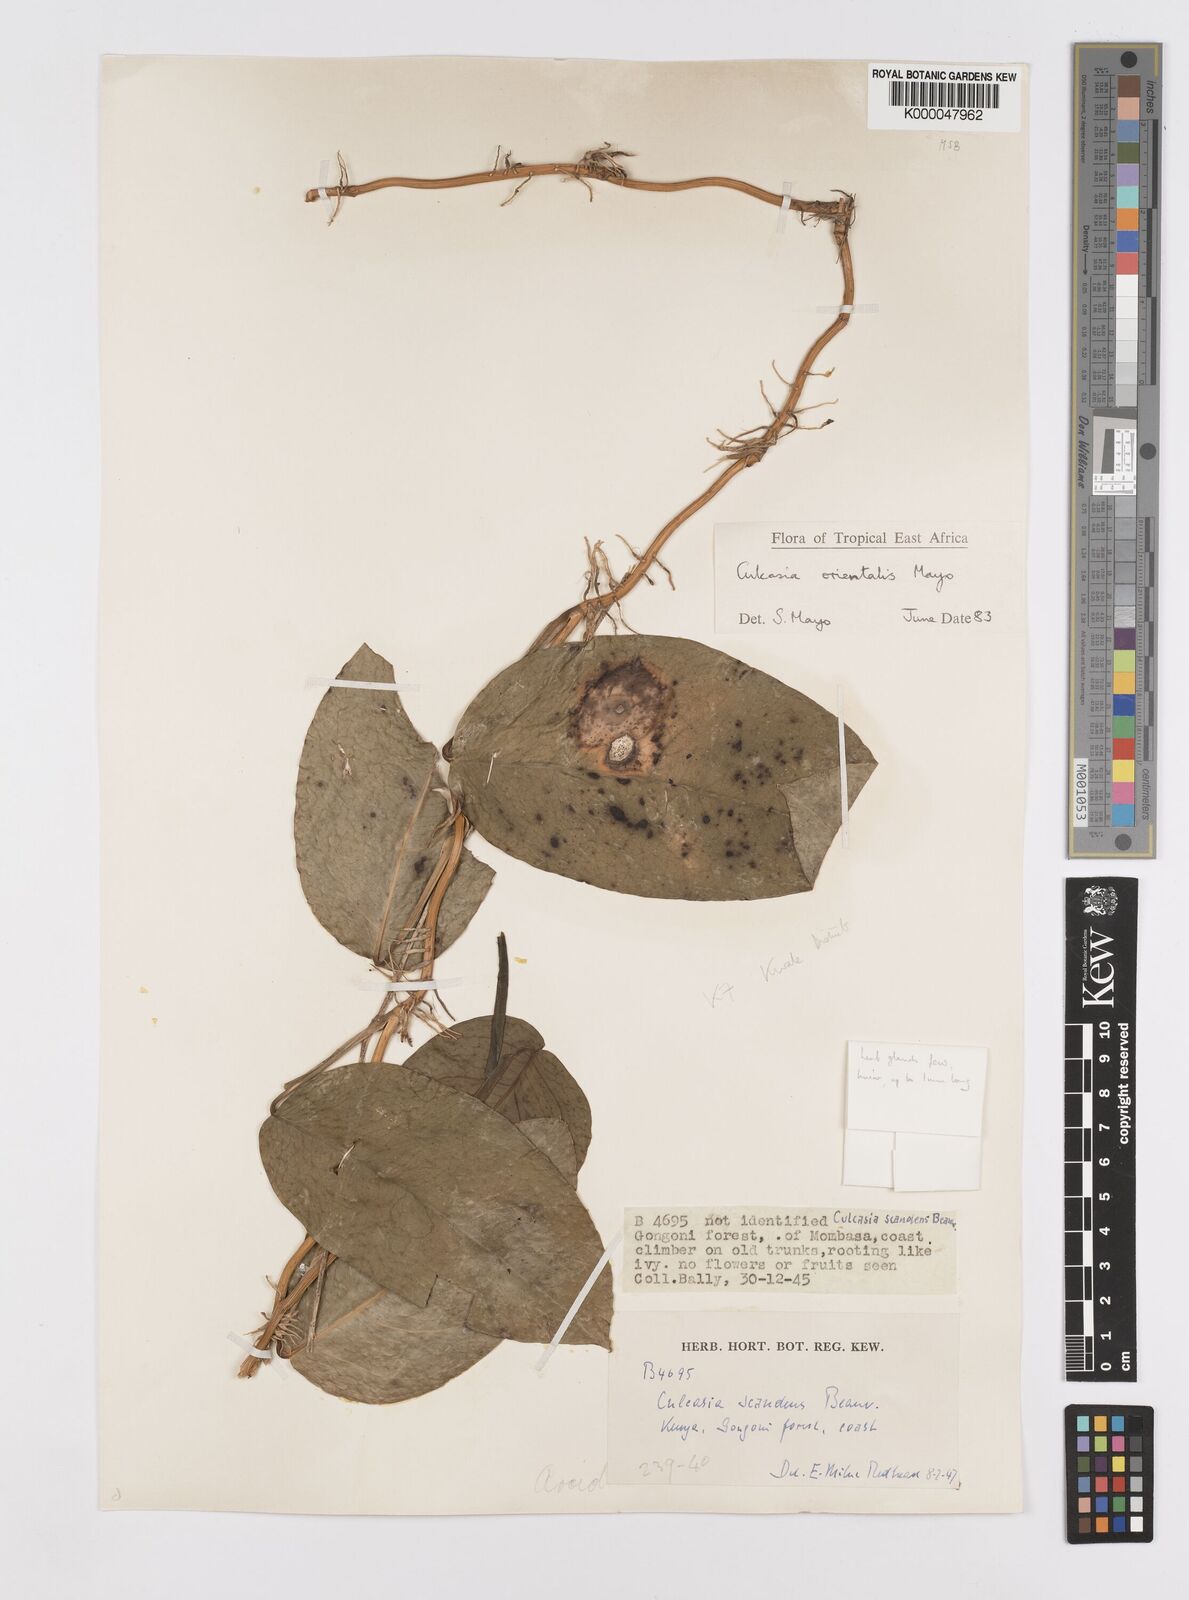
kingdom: Plantae
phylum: Tracheophyta
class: Liliopsida
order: Alismatales
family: Araceae
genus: Culcasia
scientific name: Culcasia orientalis
